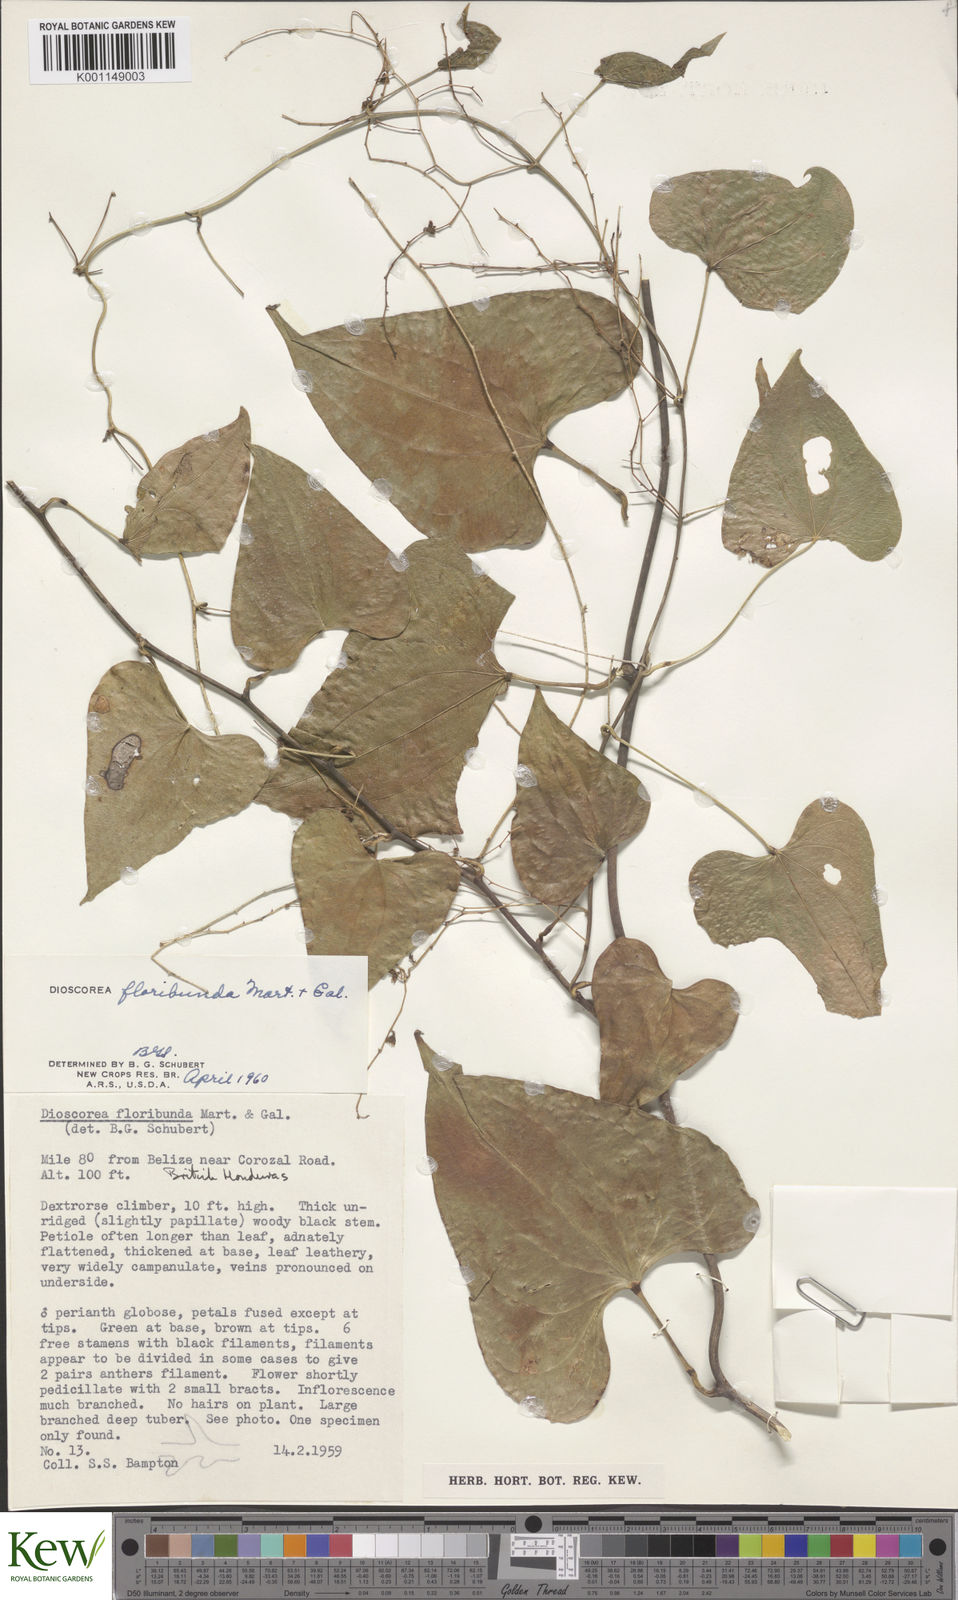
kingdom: Plantae
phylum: Tracheophyta
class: Liliopsida
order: Dioscoreales
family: Dioscoreaceae
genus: Dioscorea
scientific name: Dioscorea floribunda
